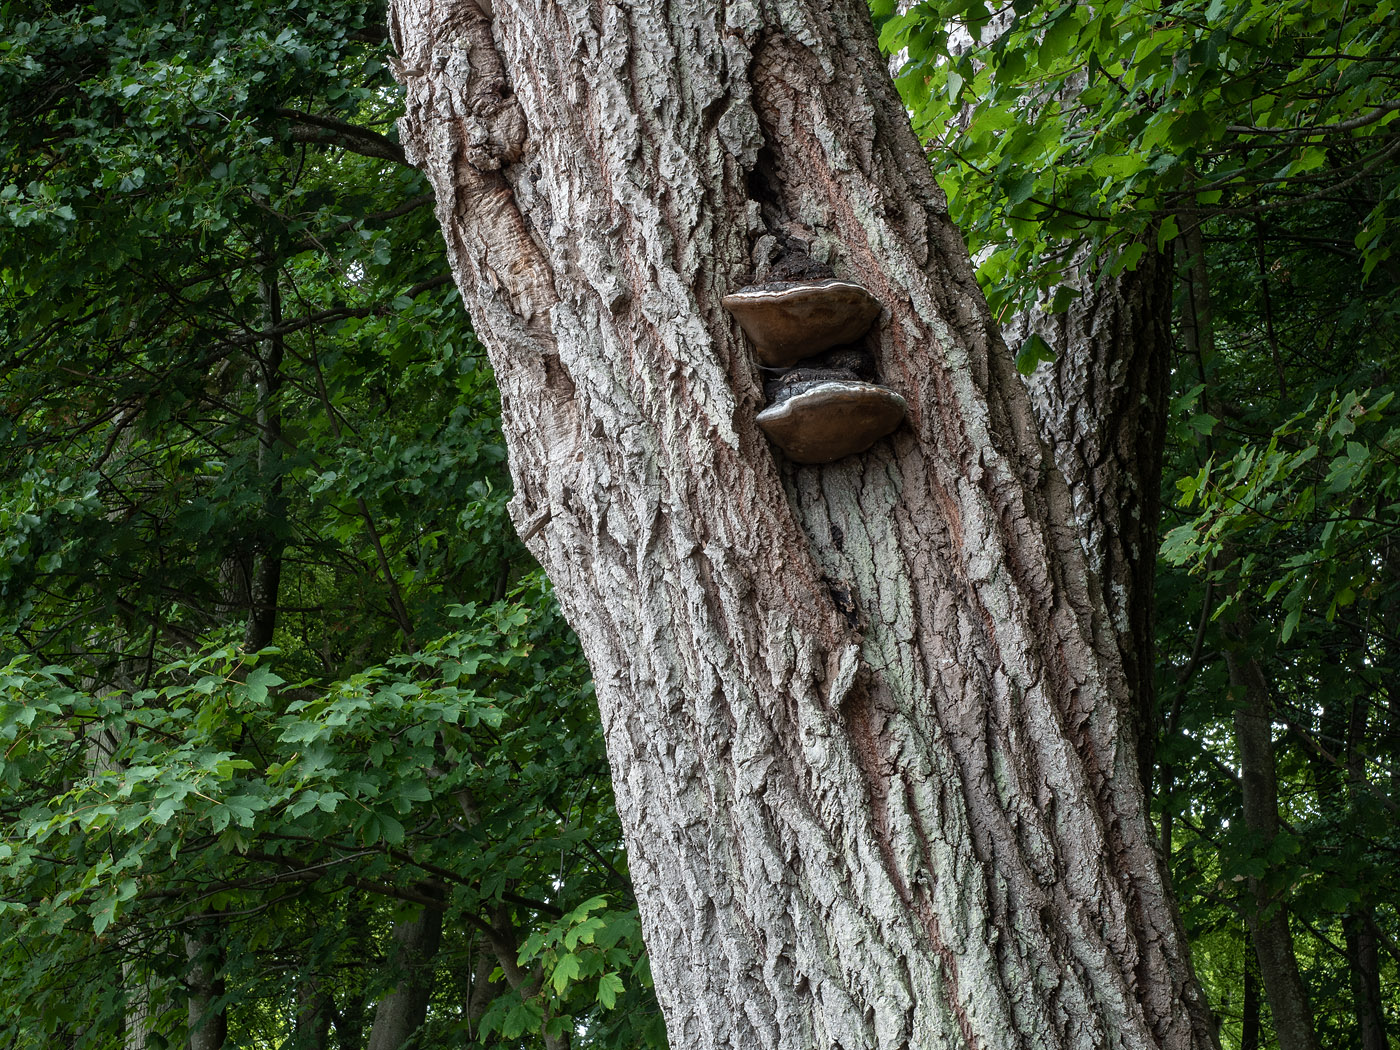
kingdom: Fungi
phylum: Basidiomycota
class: Agaricomycetes
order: Hymenochaetales
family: Hymenochaetaceae
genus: Phellinus
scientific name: Phellinus populicola
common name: poppel-ildporesvamp
